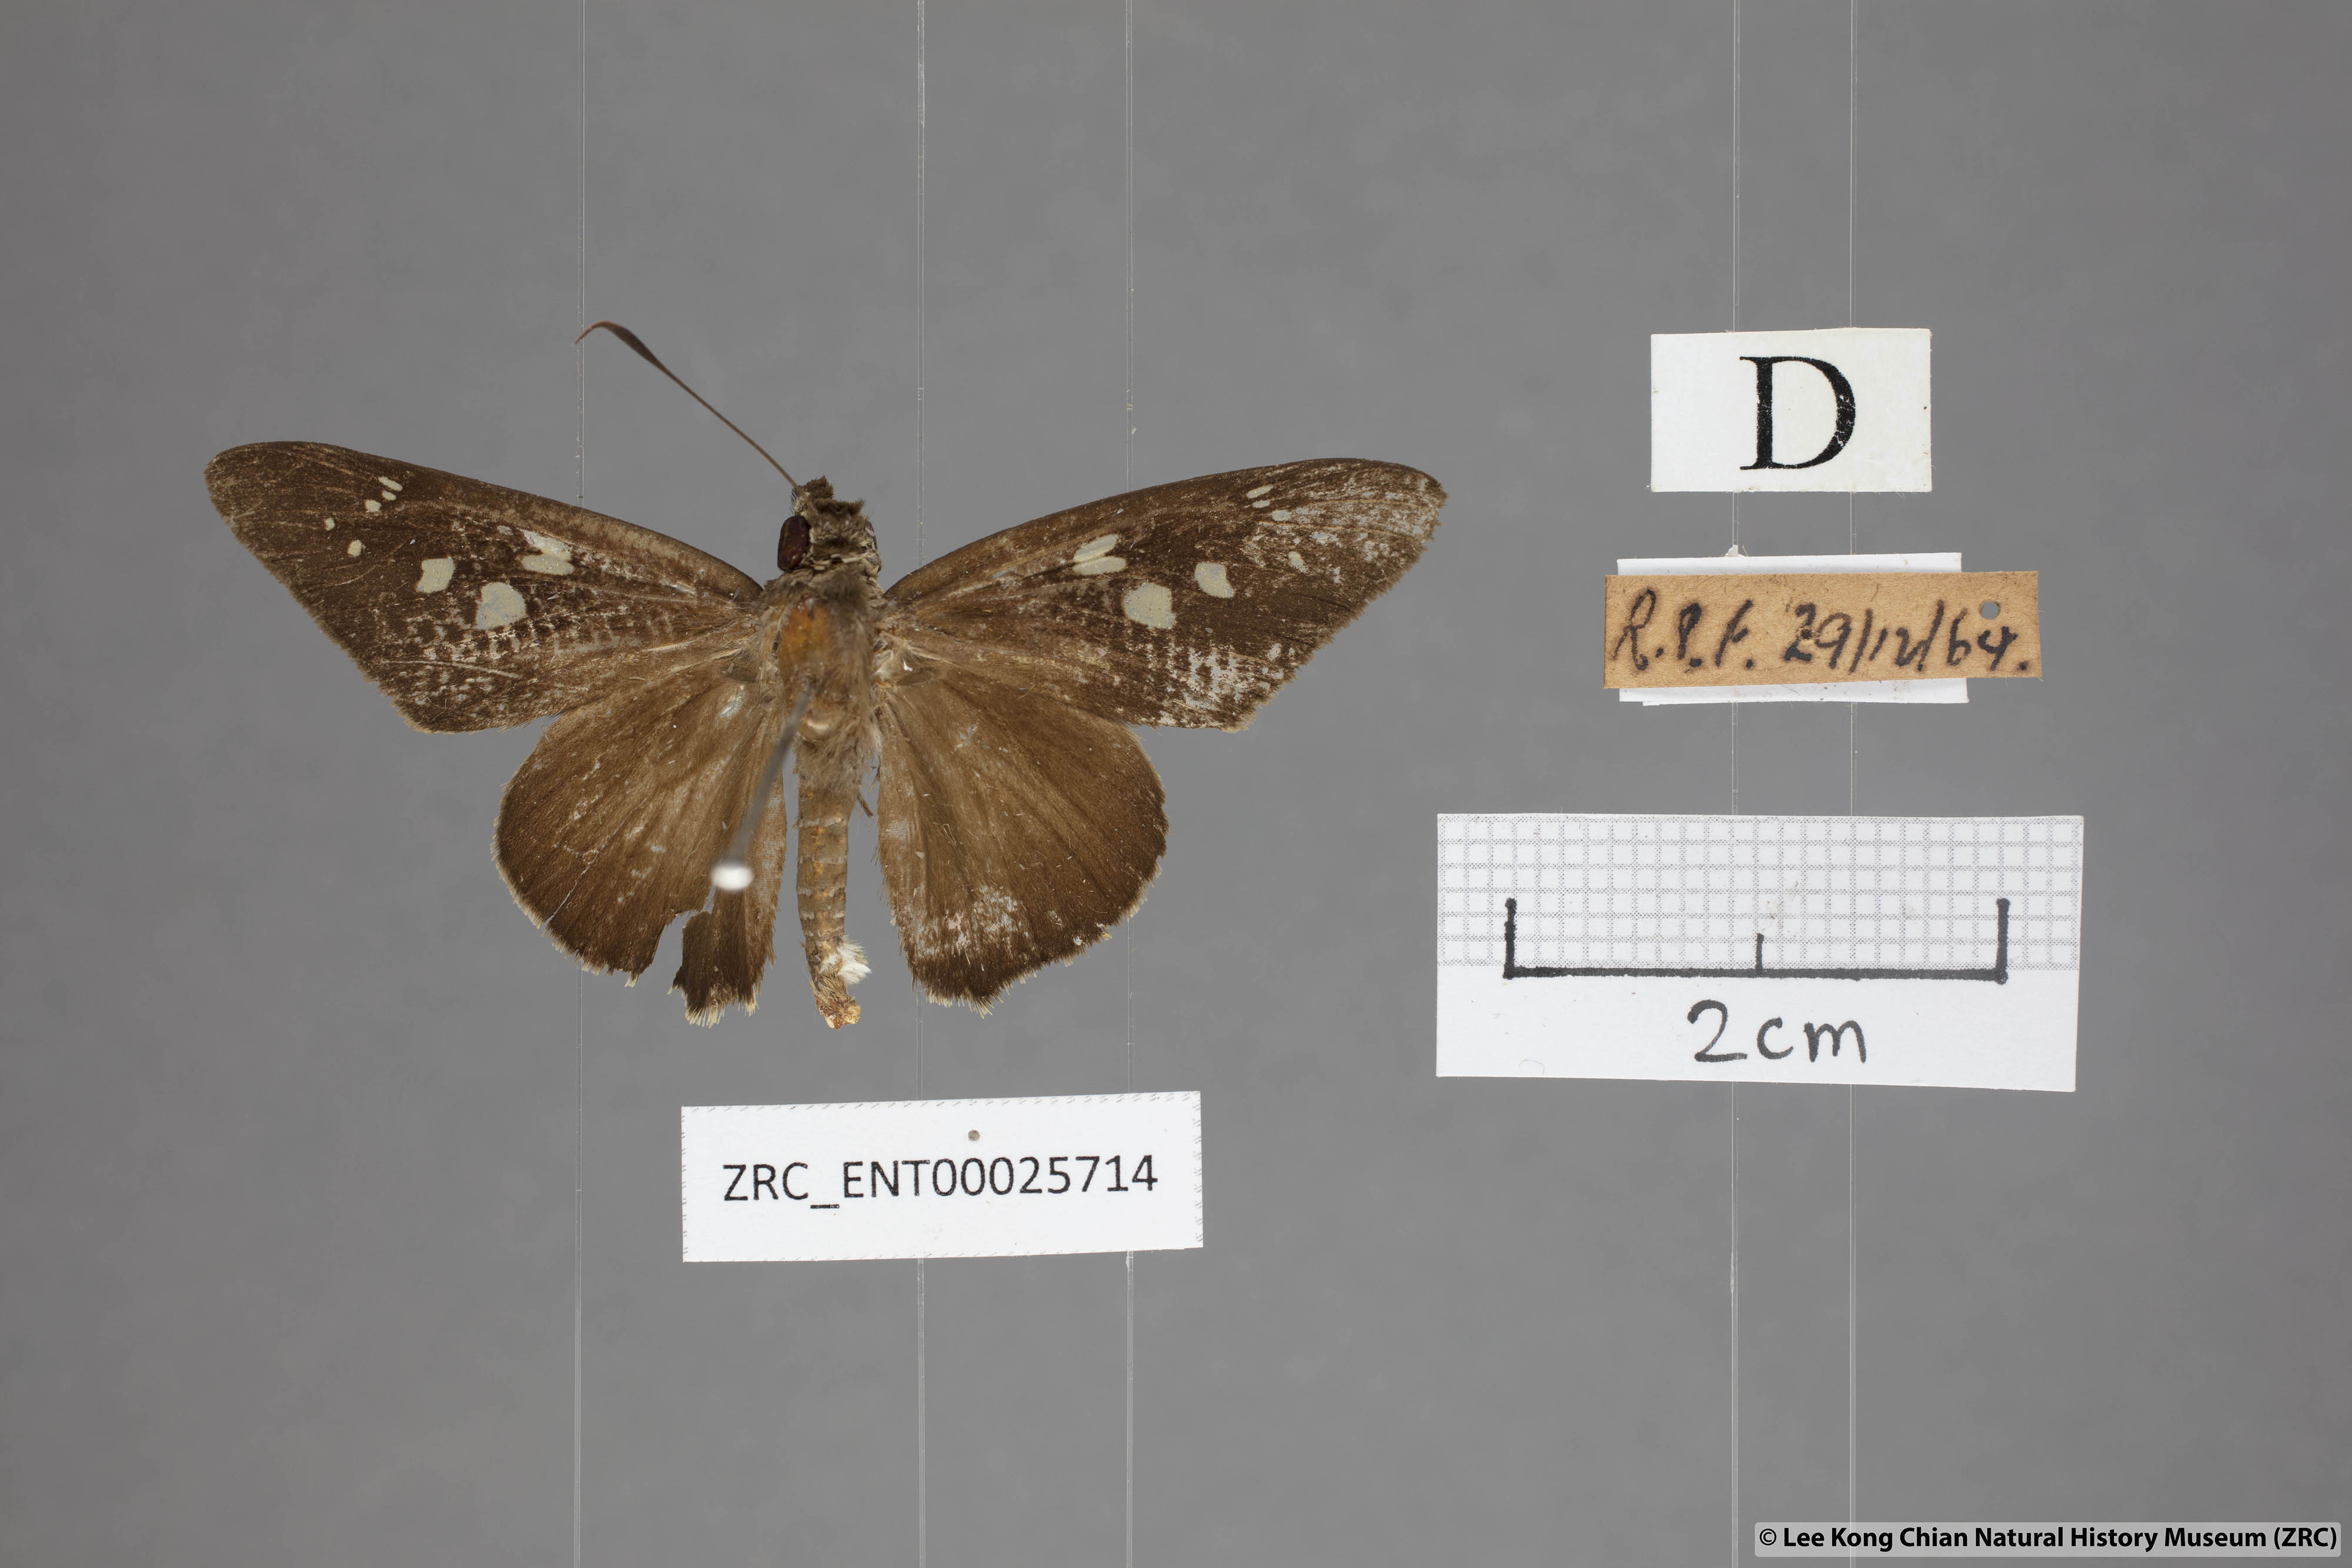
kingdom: Animalia
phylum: Arthropoda
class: Insecta
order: Lepidoptera
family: Hesperiidae
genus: Unkana
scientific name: Unkana ambasa
